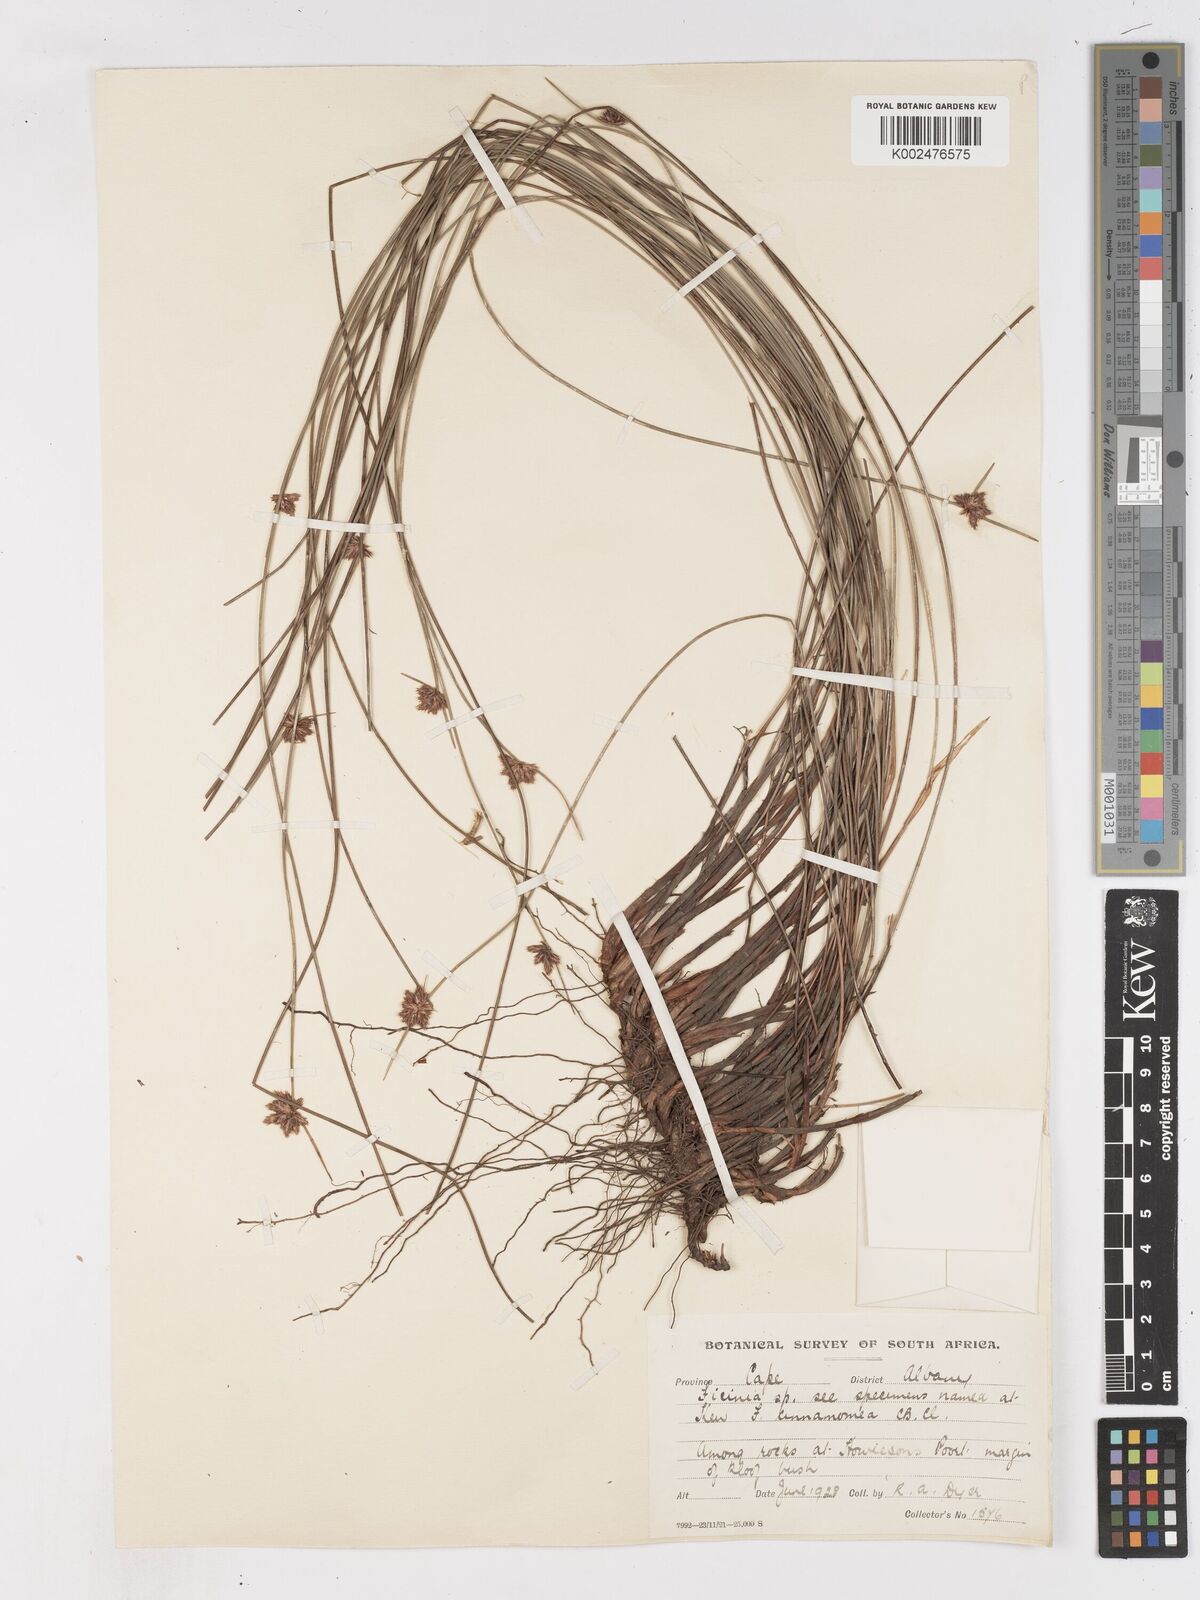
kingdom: Plantae
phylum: Tracheophyta
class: Liliopsida
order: Poales
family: Cyperaceae
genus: Ficinia
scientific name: Ficinia
